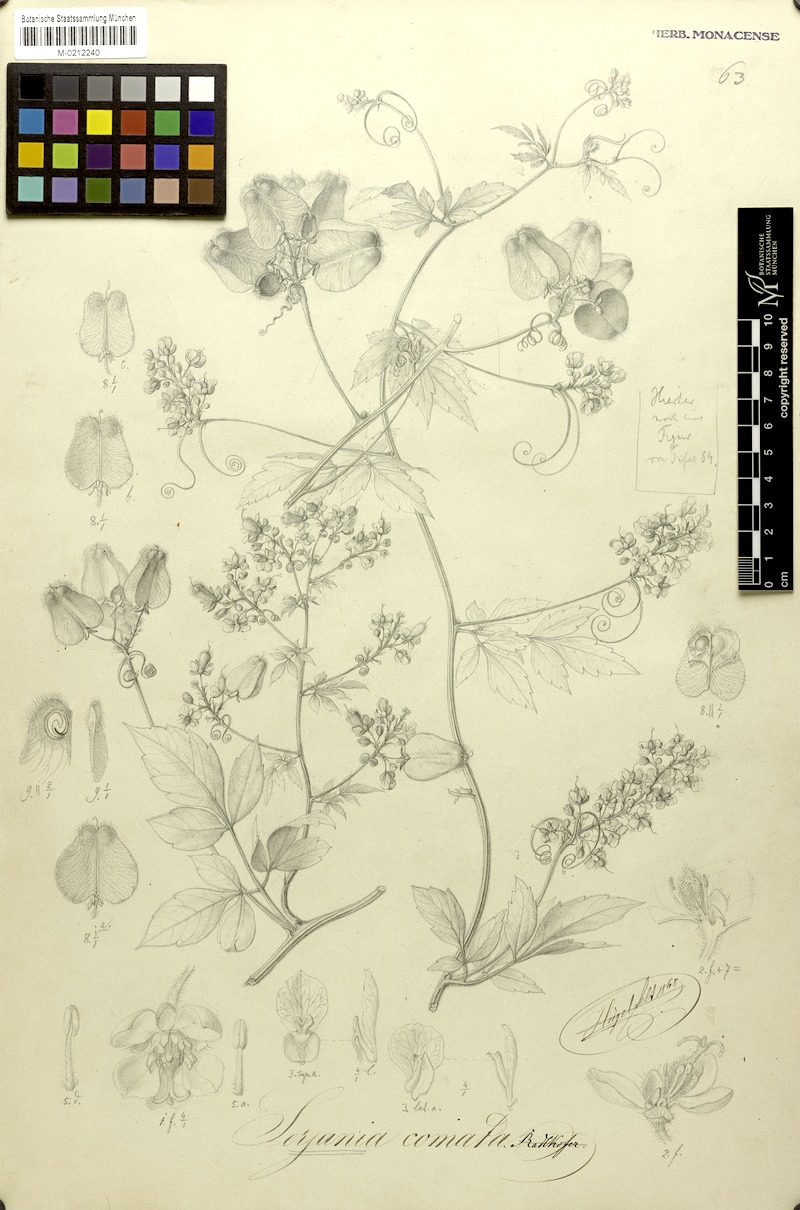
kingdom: Plantae
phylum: Tracheophyta
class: Magnoliopsida
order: Sapindales
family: Sapindaceae
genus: Serjania
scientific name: Serjania comata
